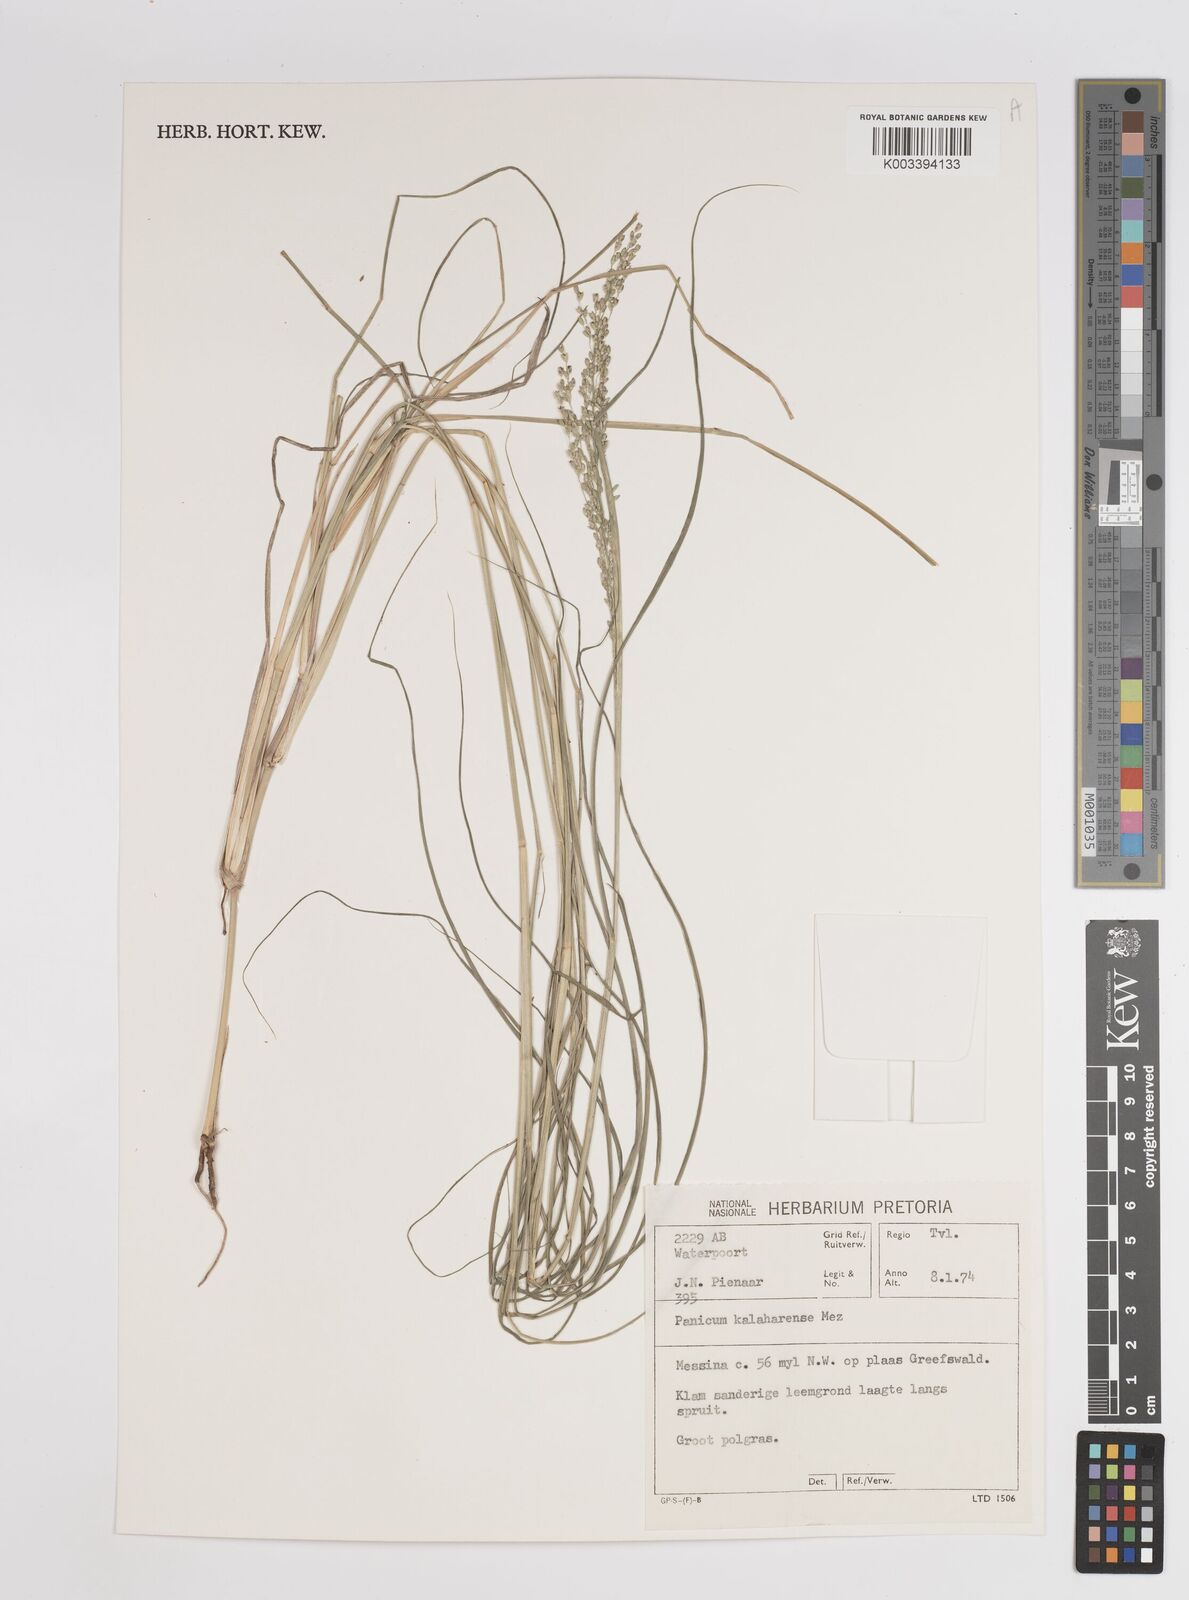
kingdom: Plantae
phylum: Tracheophyta
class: Liliopsida
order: Poales
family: Poaceae
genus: Panicum
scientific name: Panicum kalaharense
